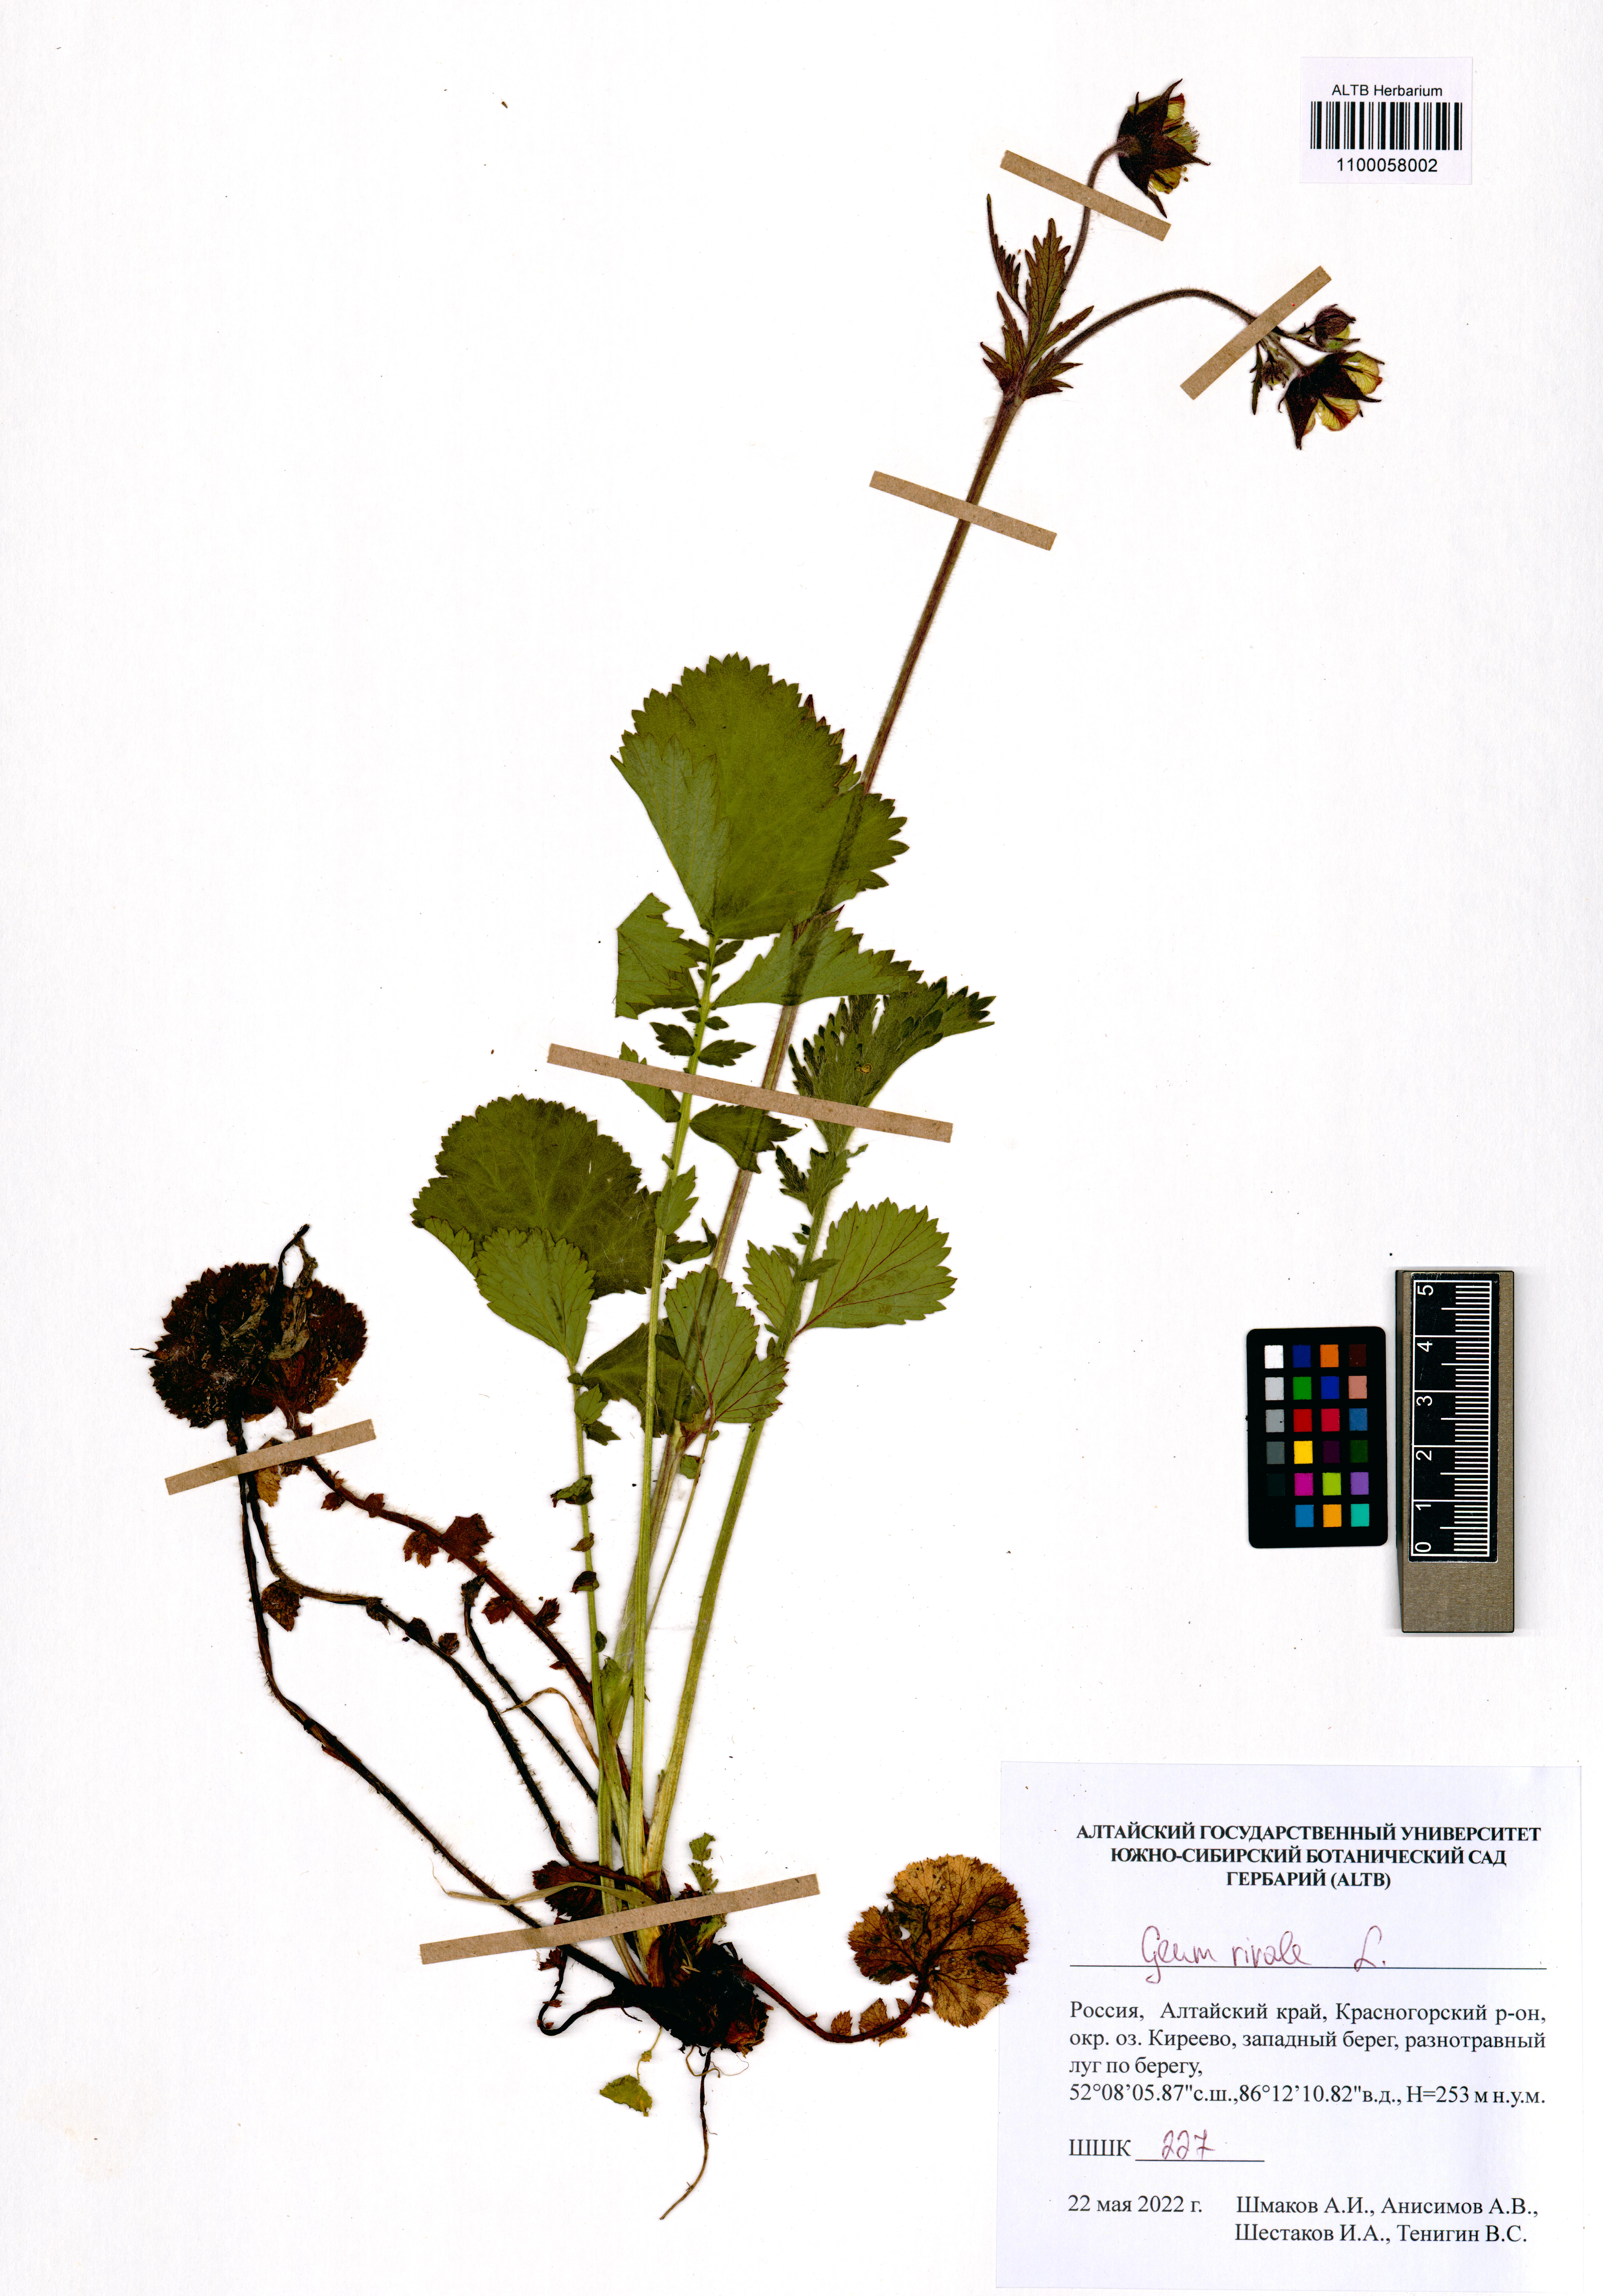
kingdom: Plantae
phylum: Tracheophyta
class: Magnoliopsida
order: Rosales
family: Rosaceae
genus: Geum
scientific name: Geum rivale
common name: Water avens
